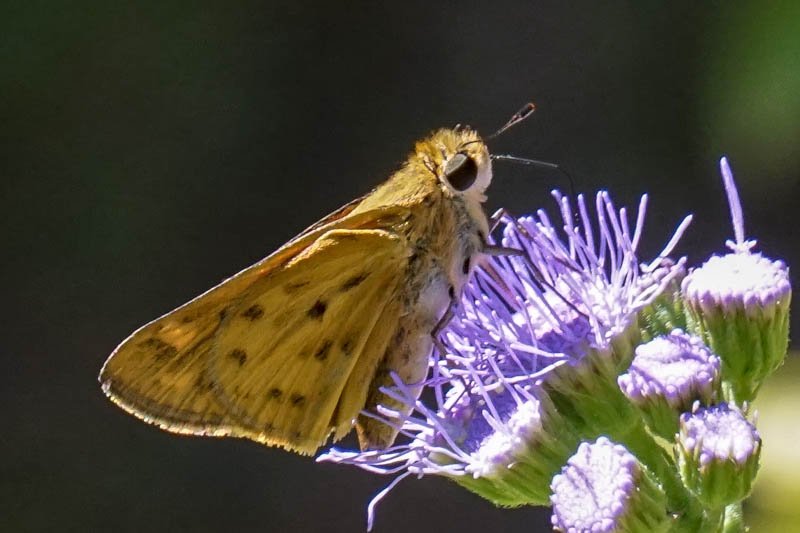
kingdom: Animalia
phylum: Arthropoda
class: Insecta
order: Lepidoptera
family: Hesperiidae
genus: Hylephila
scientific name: Hylephila phyleus
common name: Fiery Skipper
